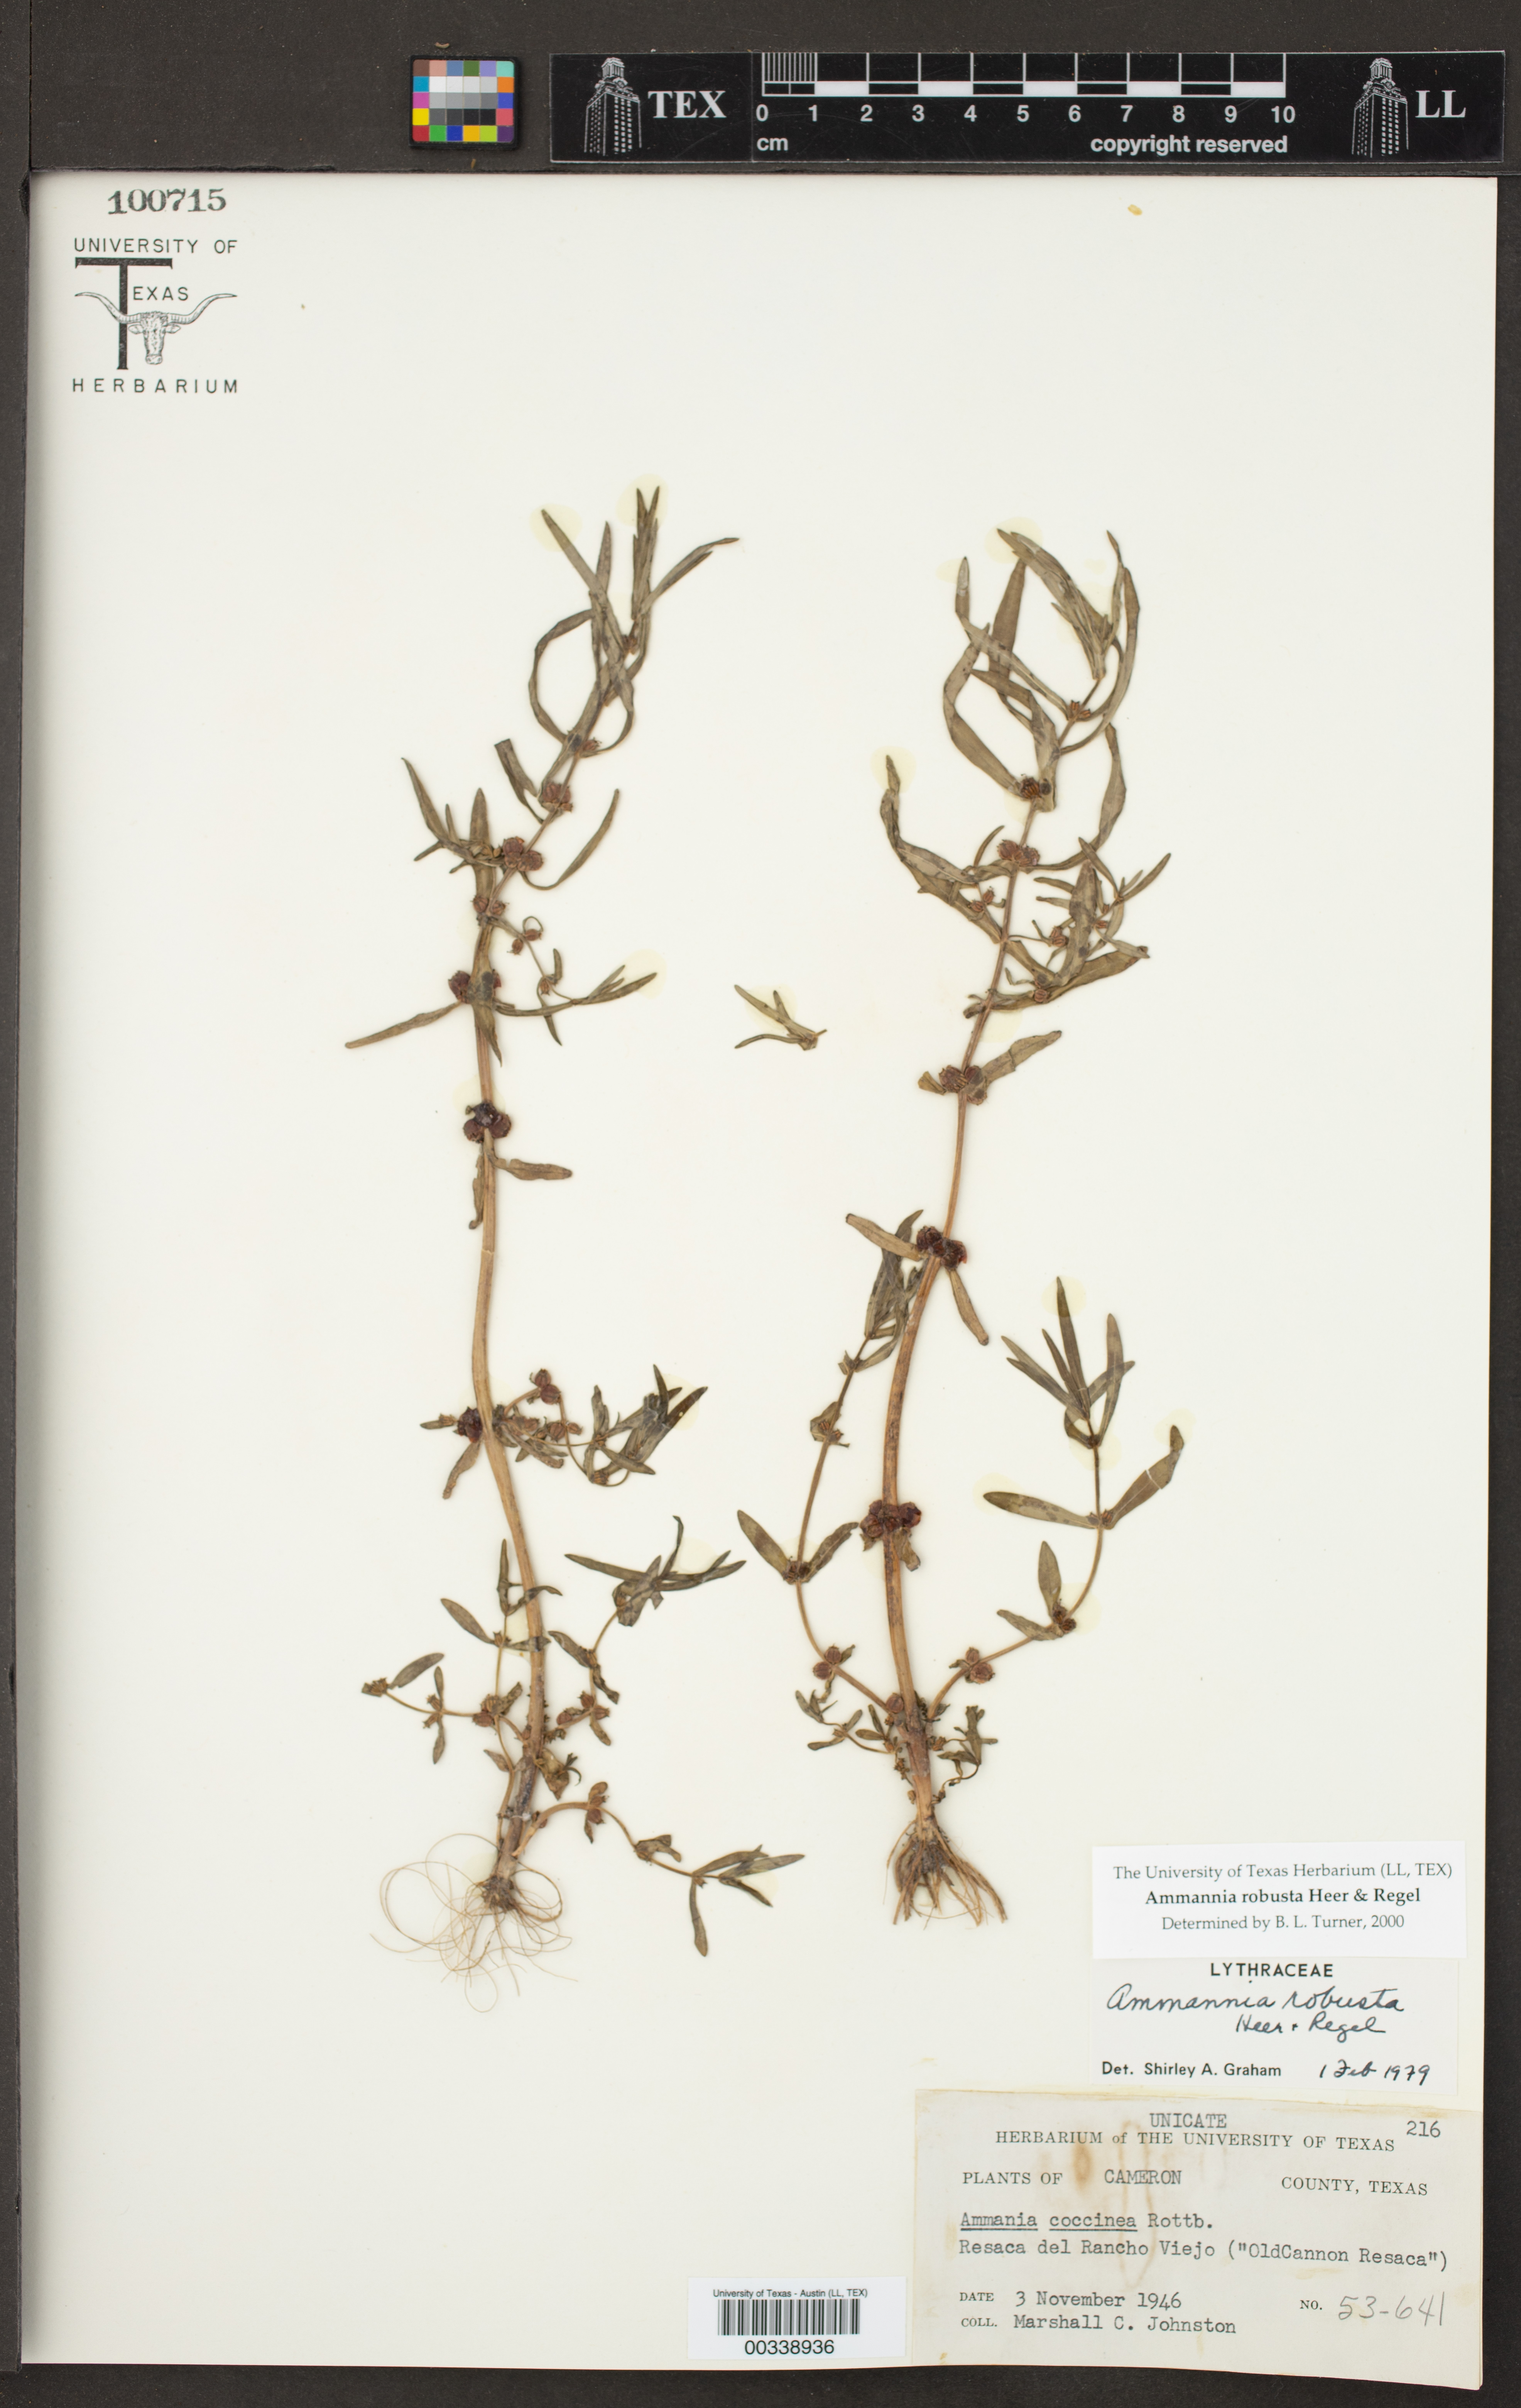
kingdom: Plantae
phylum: Tracheophyta
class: Magnoliopsida
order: Myrtales
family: Lythraceae
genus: Ammannia
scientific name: Ammannia robusta
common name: Grand ammannia
